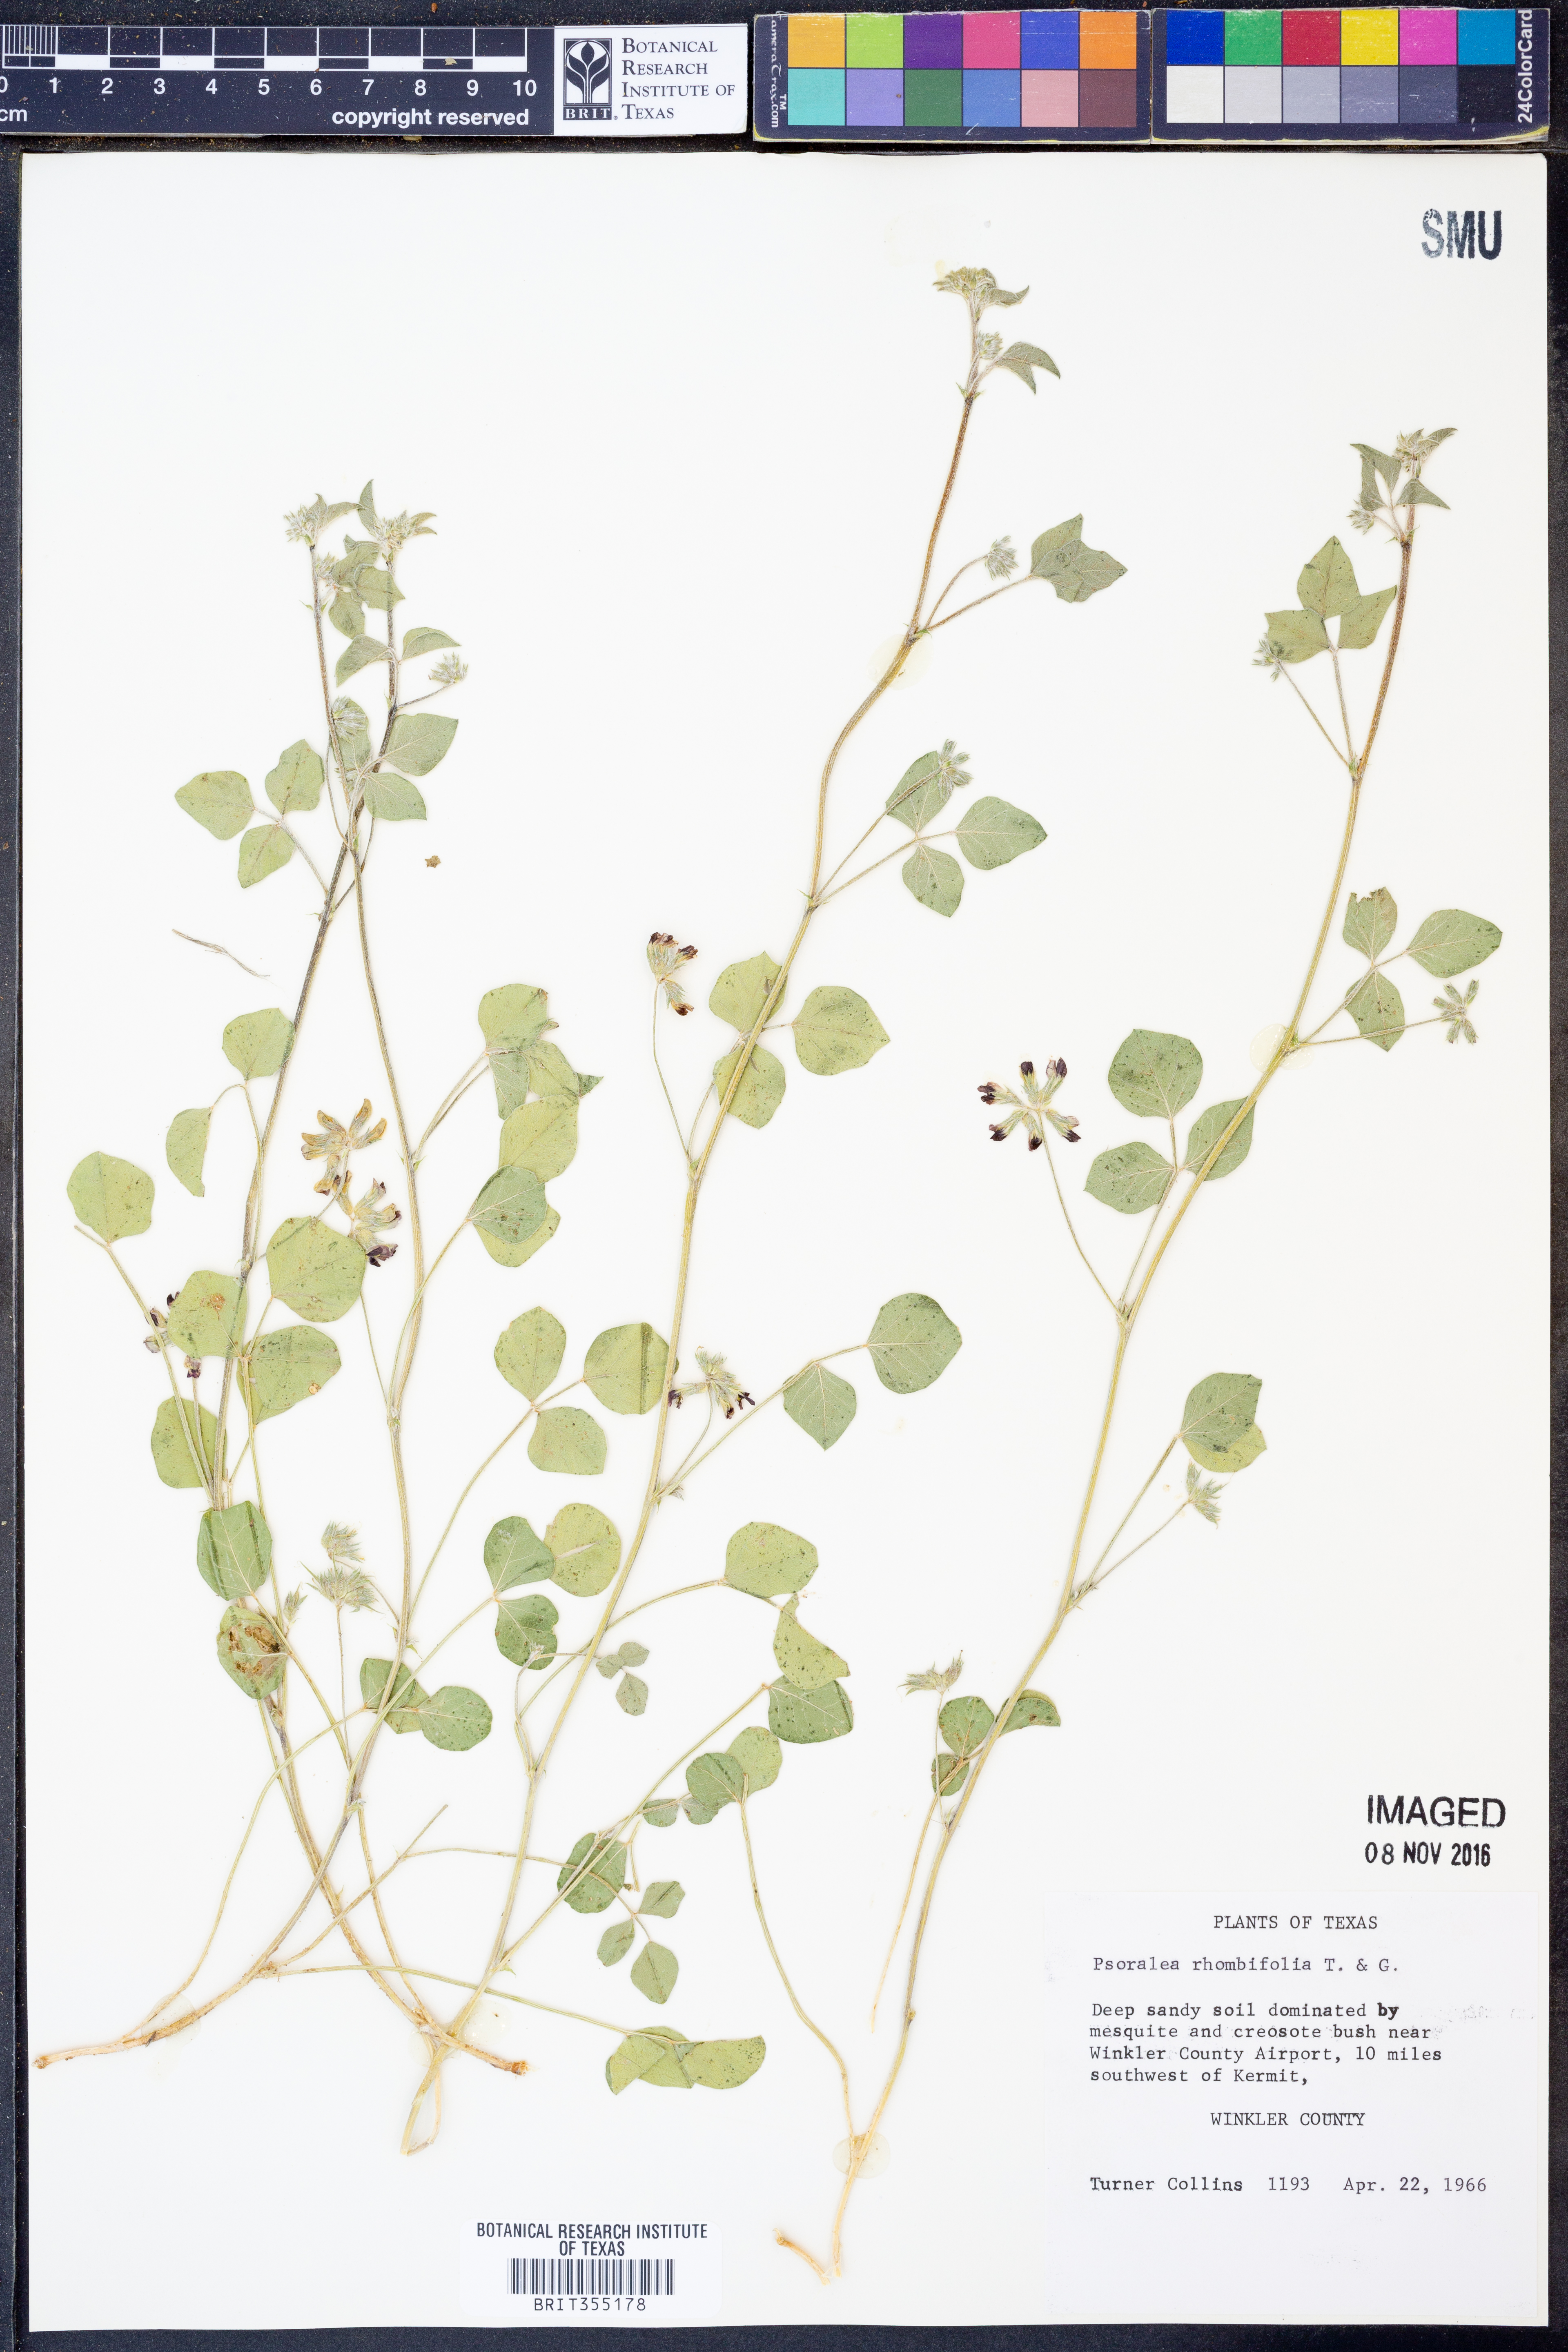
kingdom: Plantae
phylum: Tracheophyta
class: Magnoliopsida
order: Fabales
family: Fabaceae
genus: Pediomelum
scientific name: Pediomelum rhombifolium
